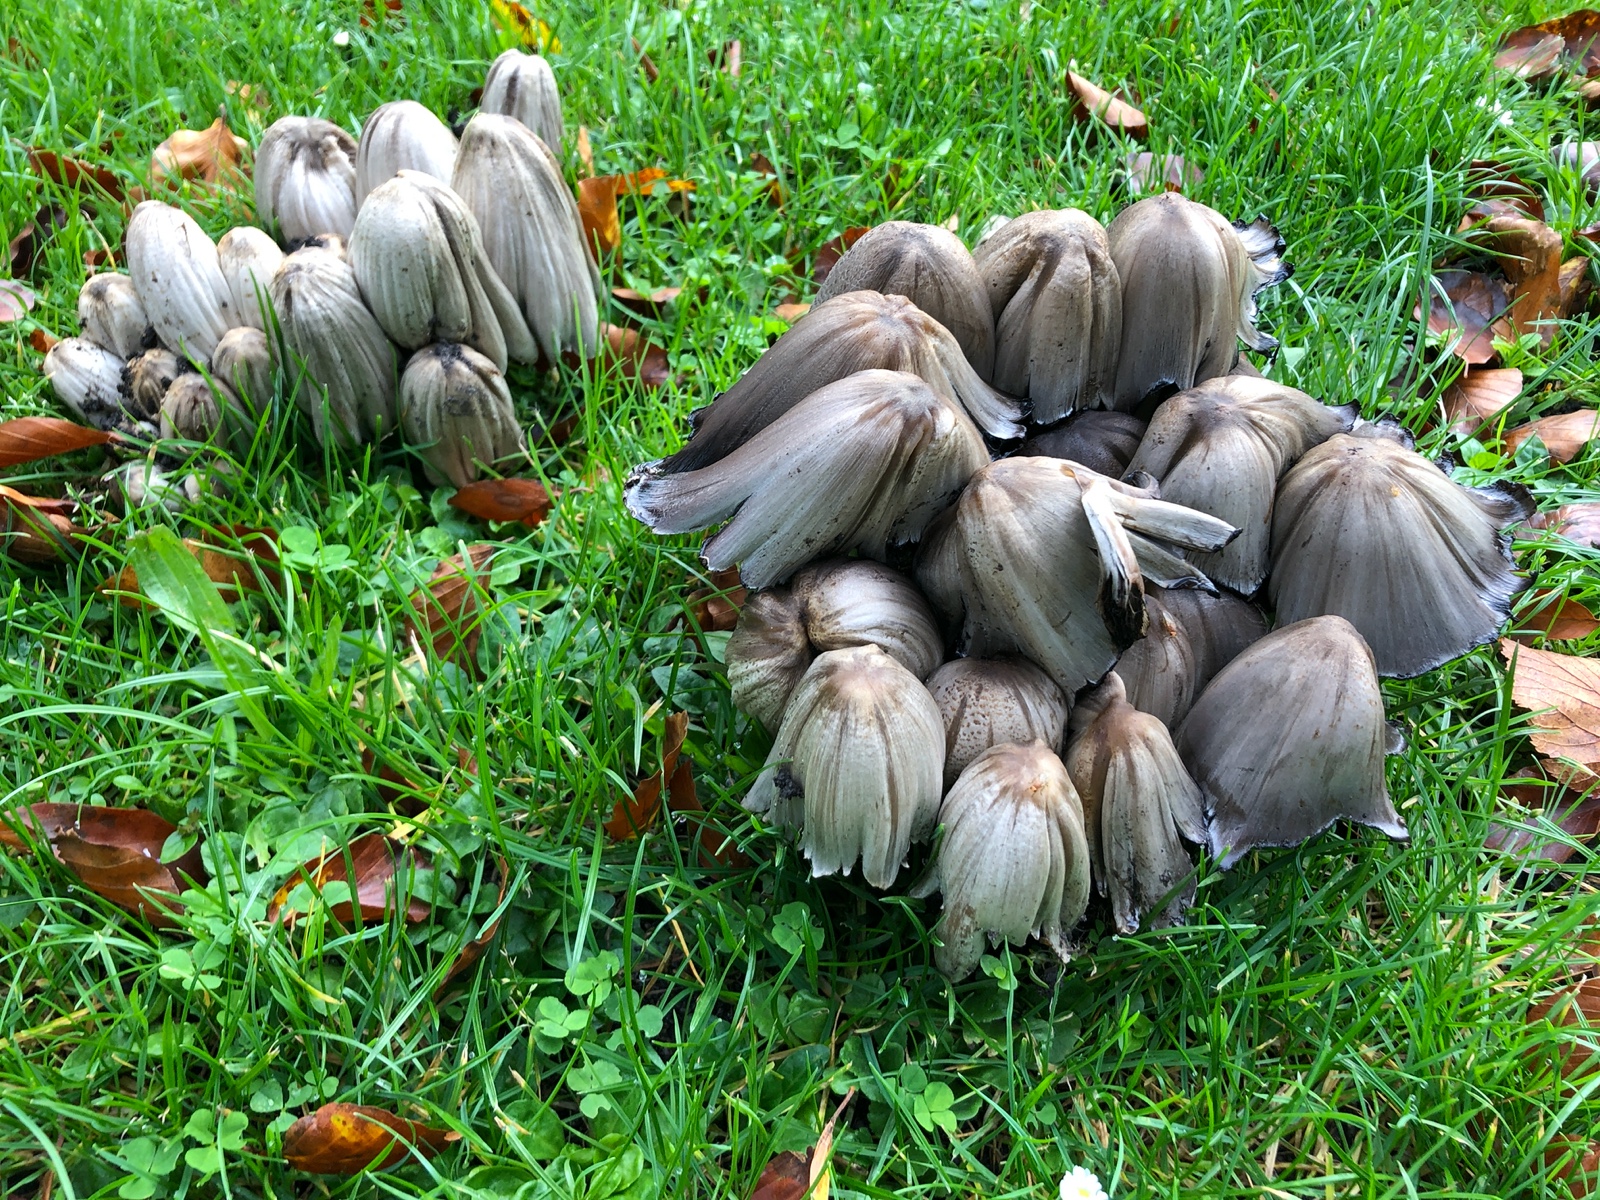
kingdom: Fungi
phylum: Basidiomycota
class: Agaricomycetes
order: Agaricales
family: Psathyrellaceae
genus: Coprinopsis
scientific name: Coprinopsis atramentaria
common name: almindelig blækhat
